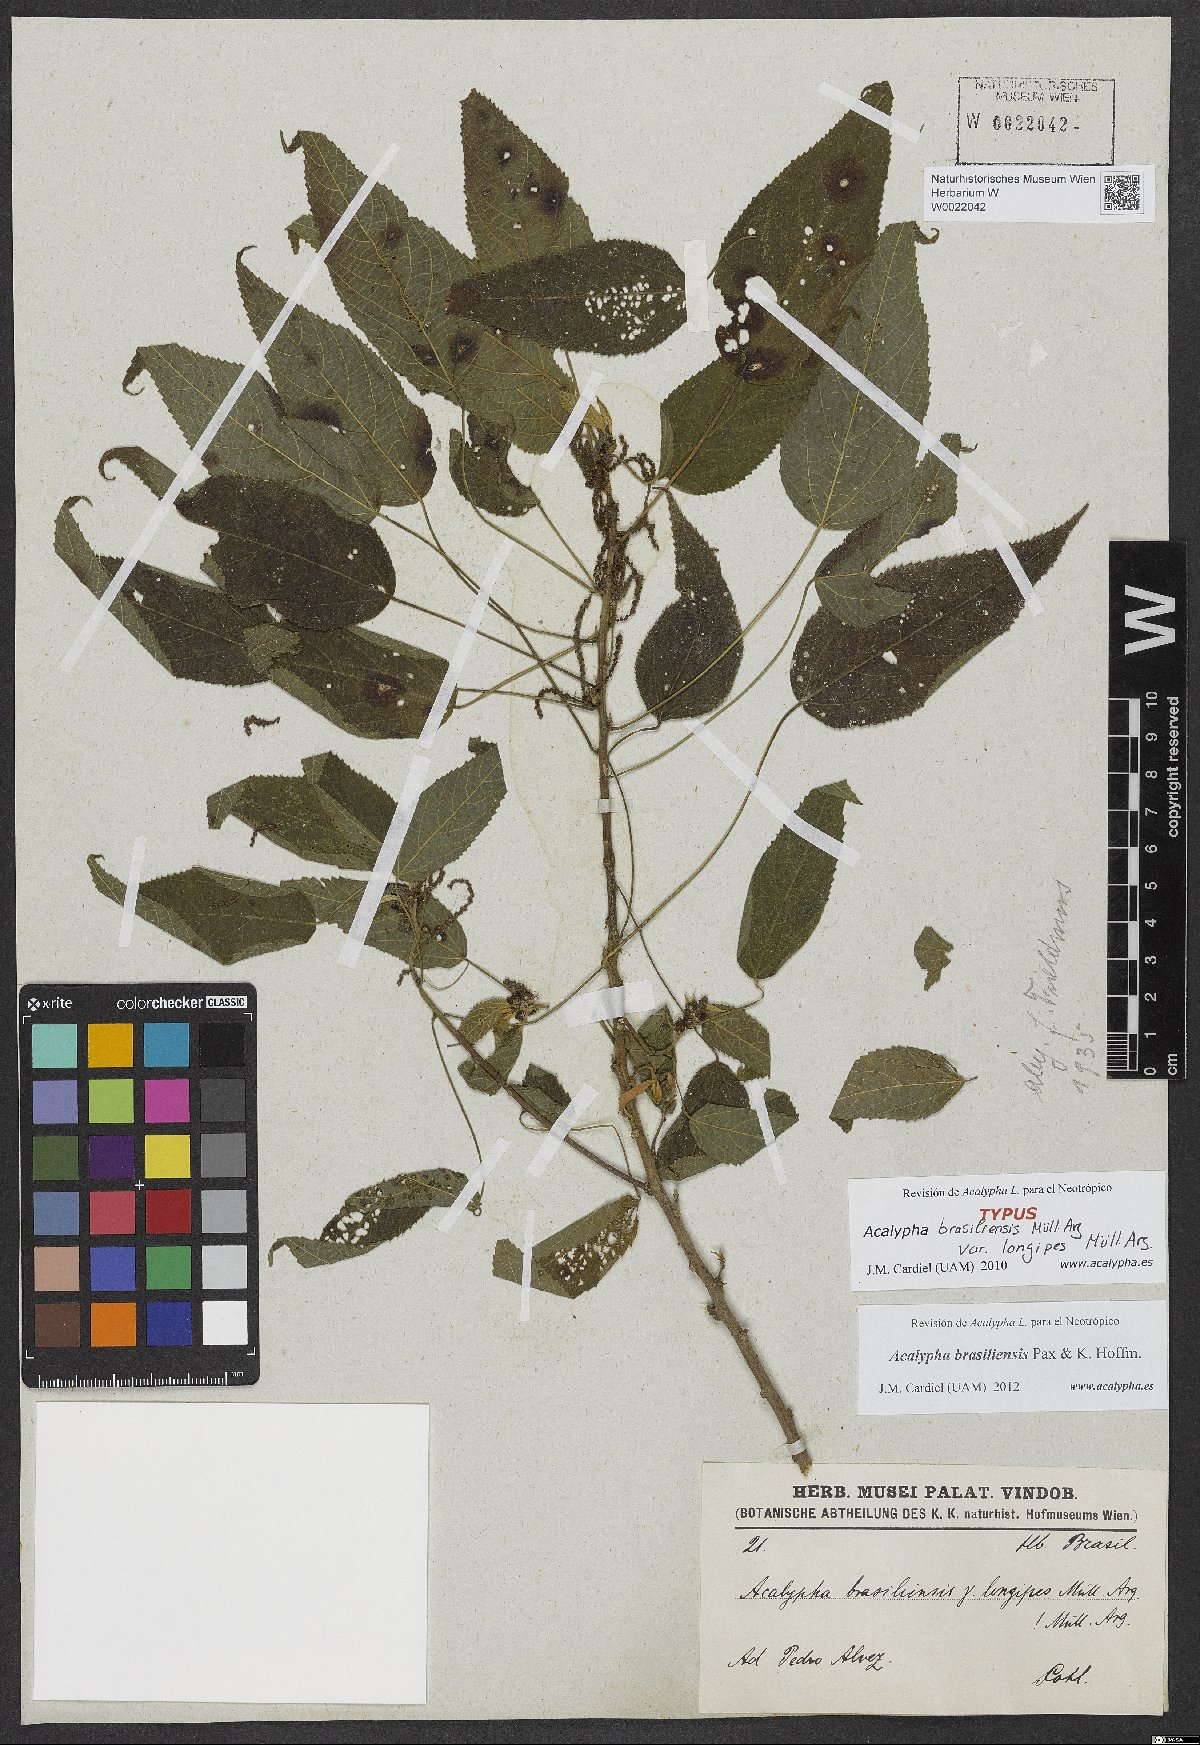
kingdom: Plantae
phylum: Tracheophyta
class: Magnoliopsida
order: Malpighiales
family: Euphorbiaceae
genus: Acalypha
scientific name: Acalypha brasiliensis
